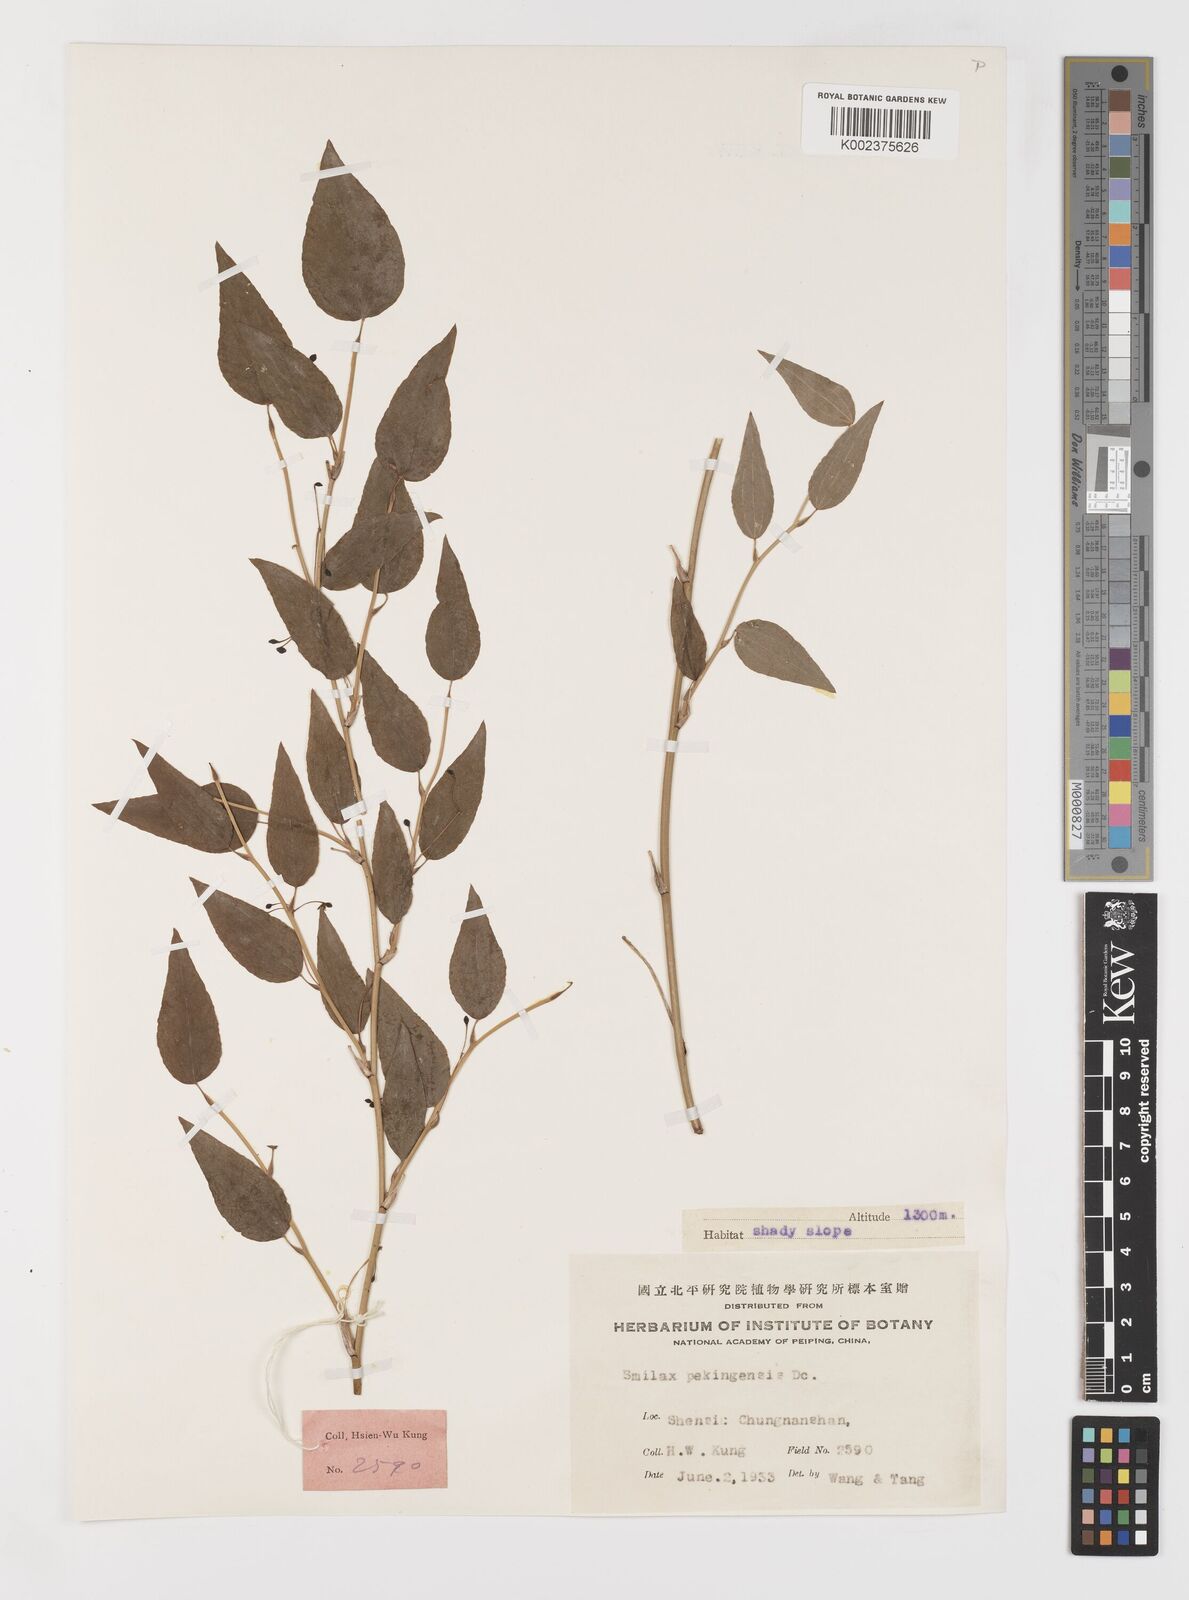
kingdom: Plantae
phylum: Tracheophyta
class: Liliopsida
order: Liliales
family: Smilacaceae
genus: Smilax
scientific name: Smilax stans
